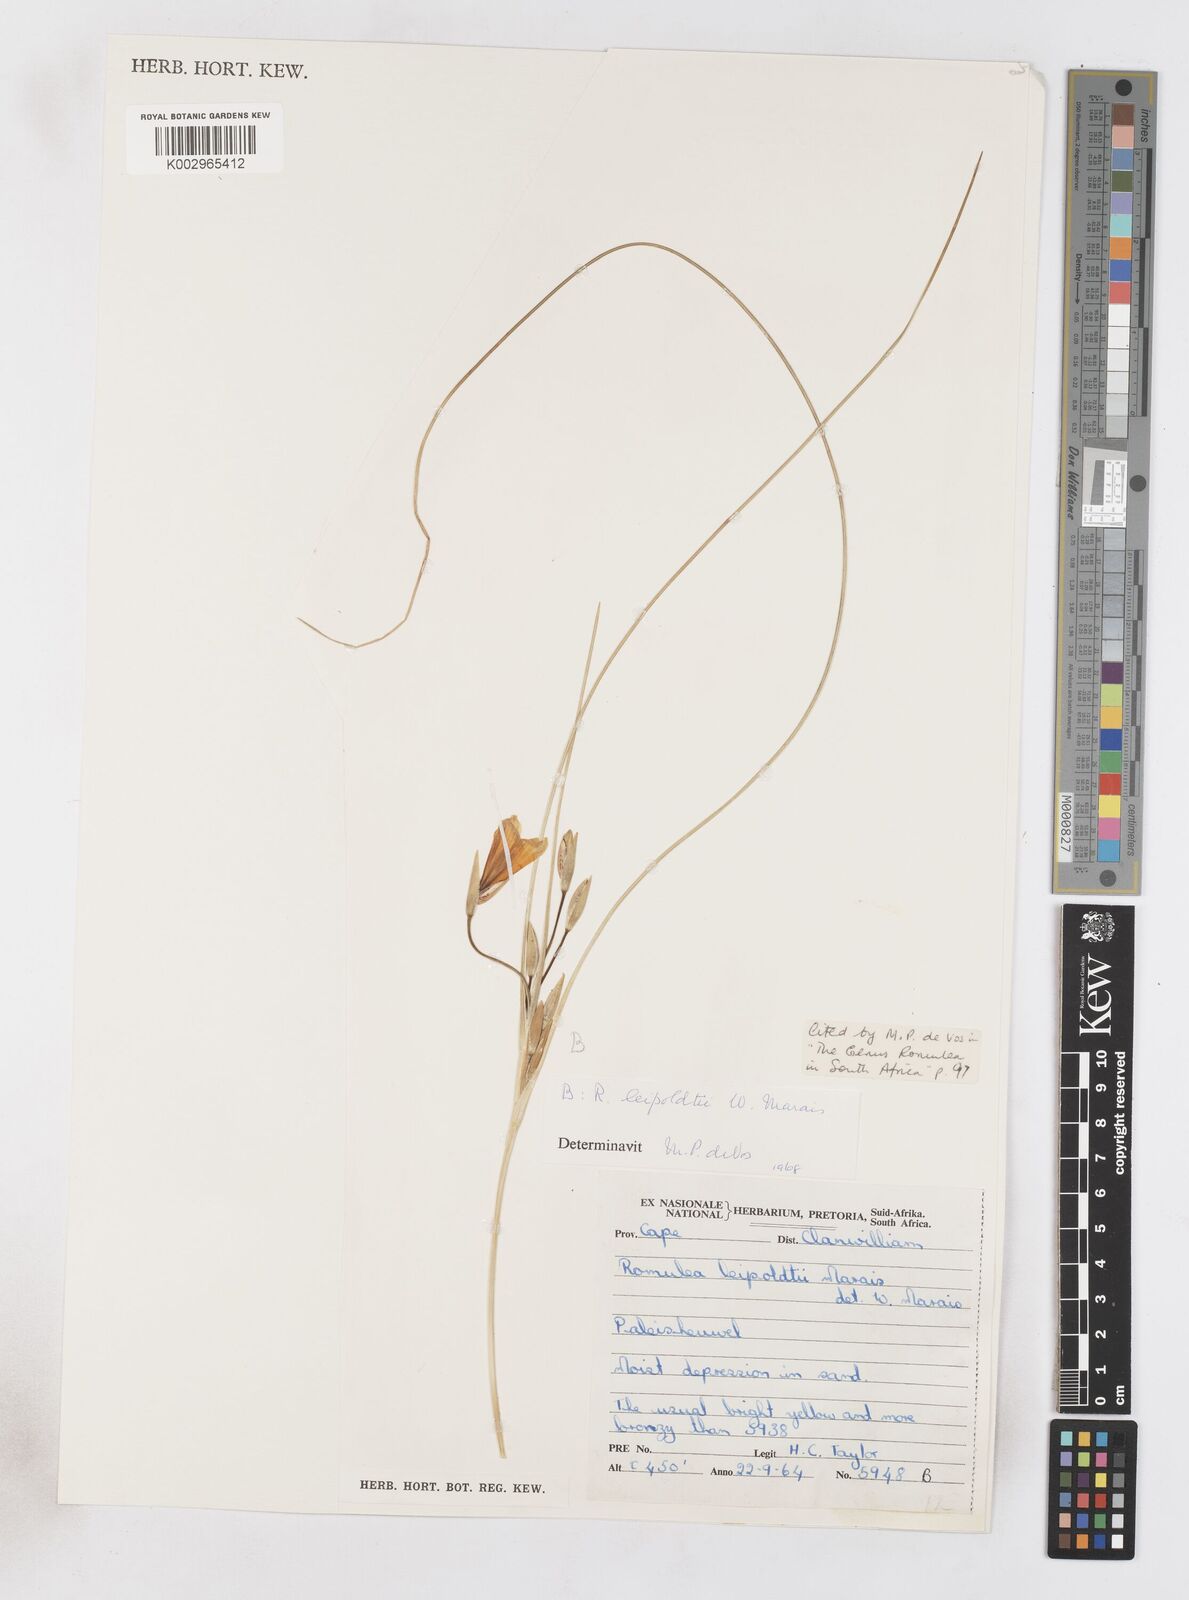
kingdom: Plantae
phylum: Tracheophyta
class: Liliopsida
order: Asparagales
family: Iridaceae
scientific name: Iridaceae
